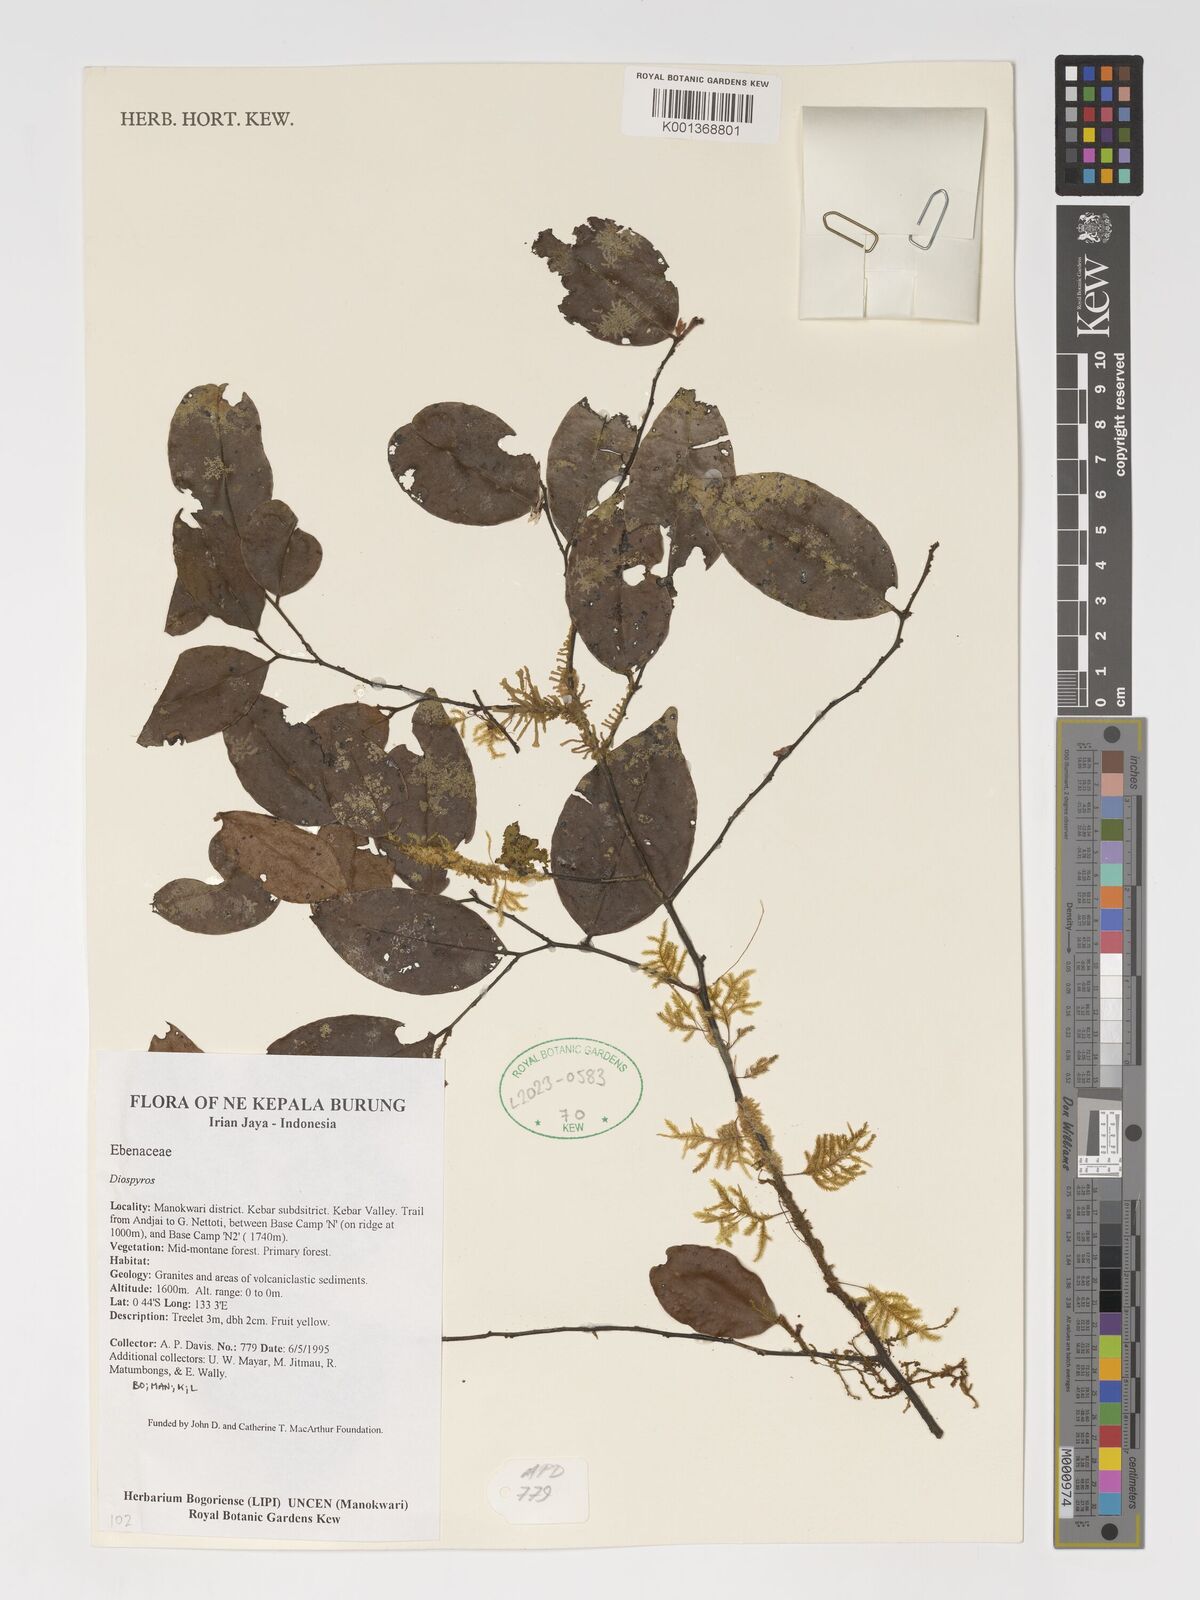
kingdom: Plantae
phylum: Tracheophyta
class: Magnoliopsida
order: Ericales
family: Ebenaceae
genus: Diospyros
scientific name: Diospyros
